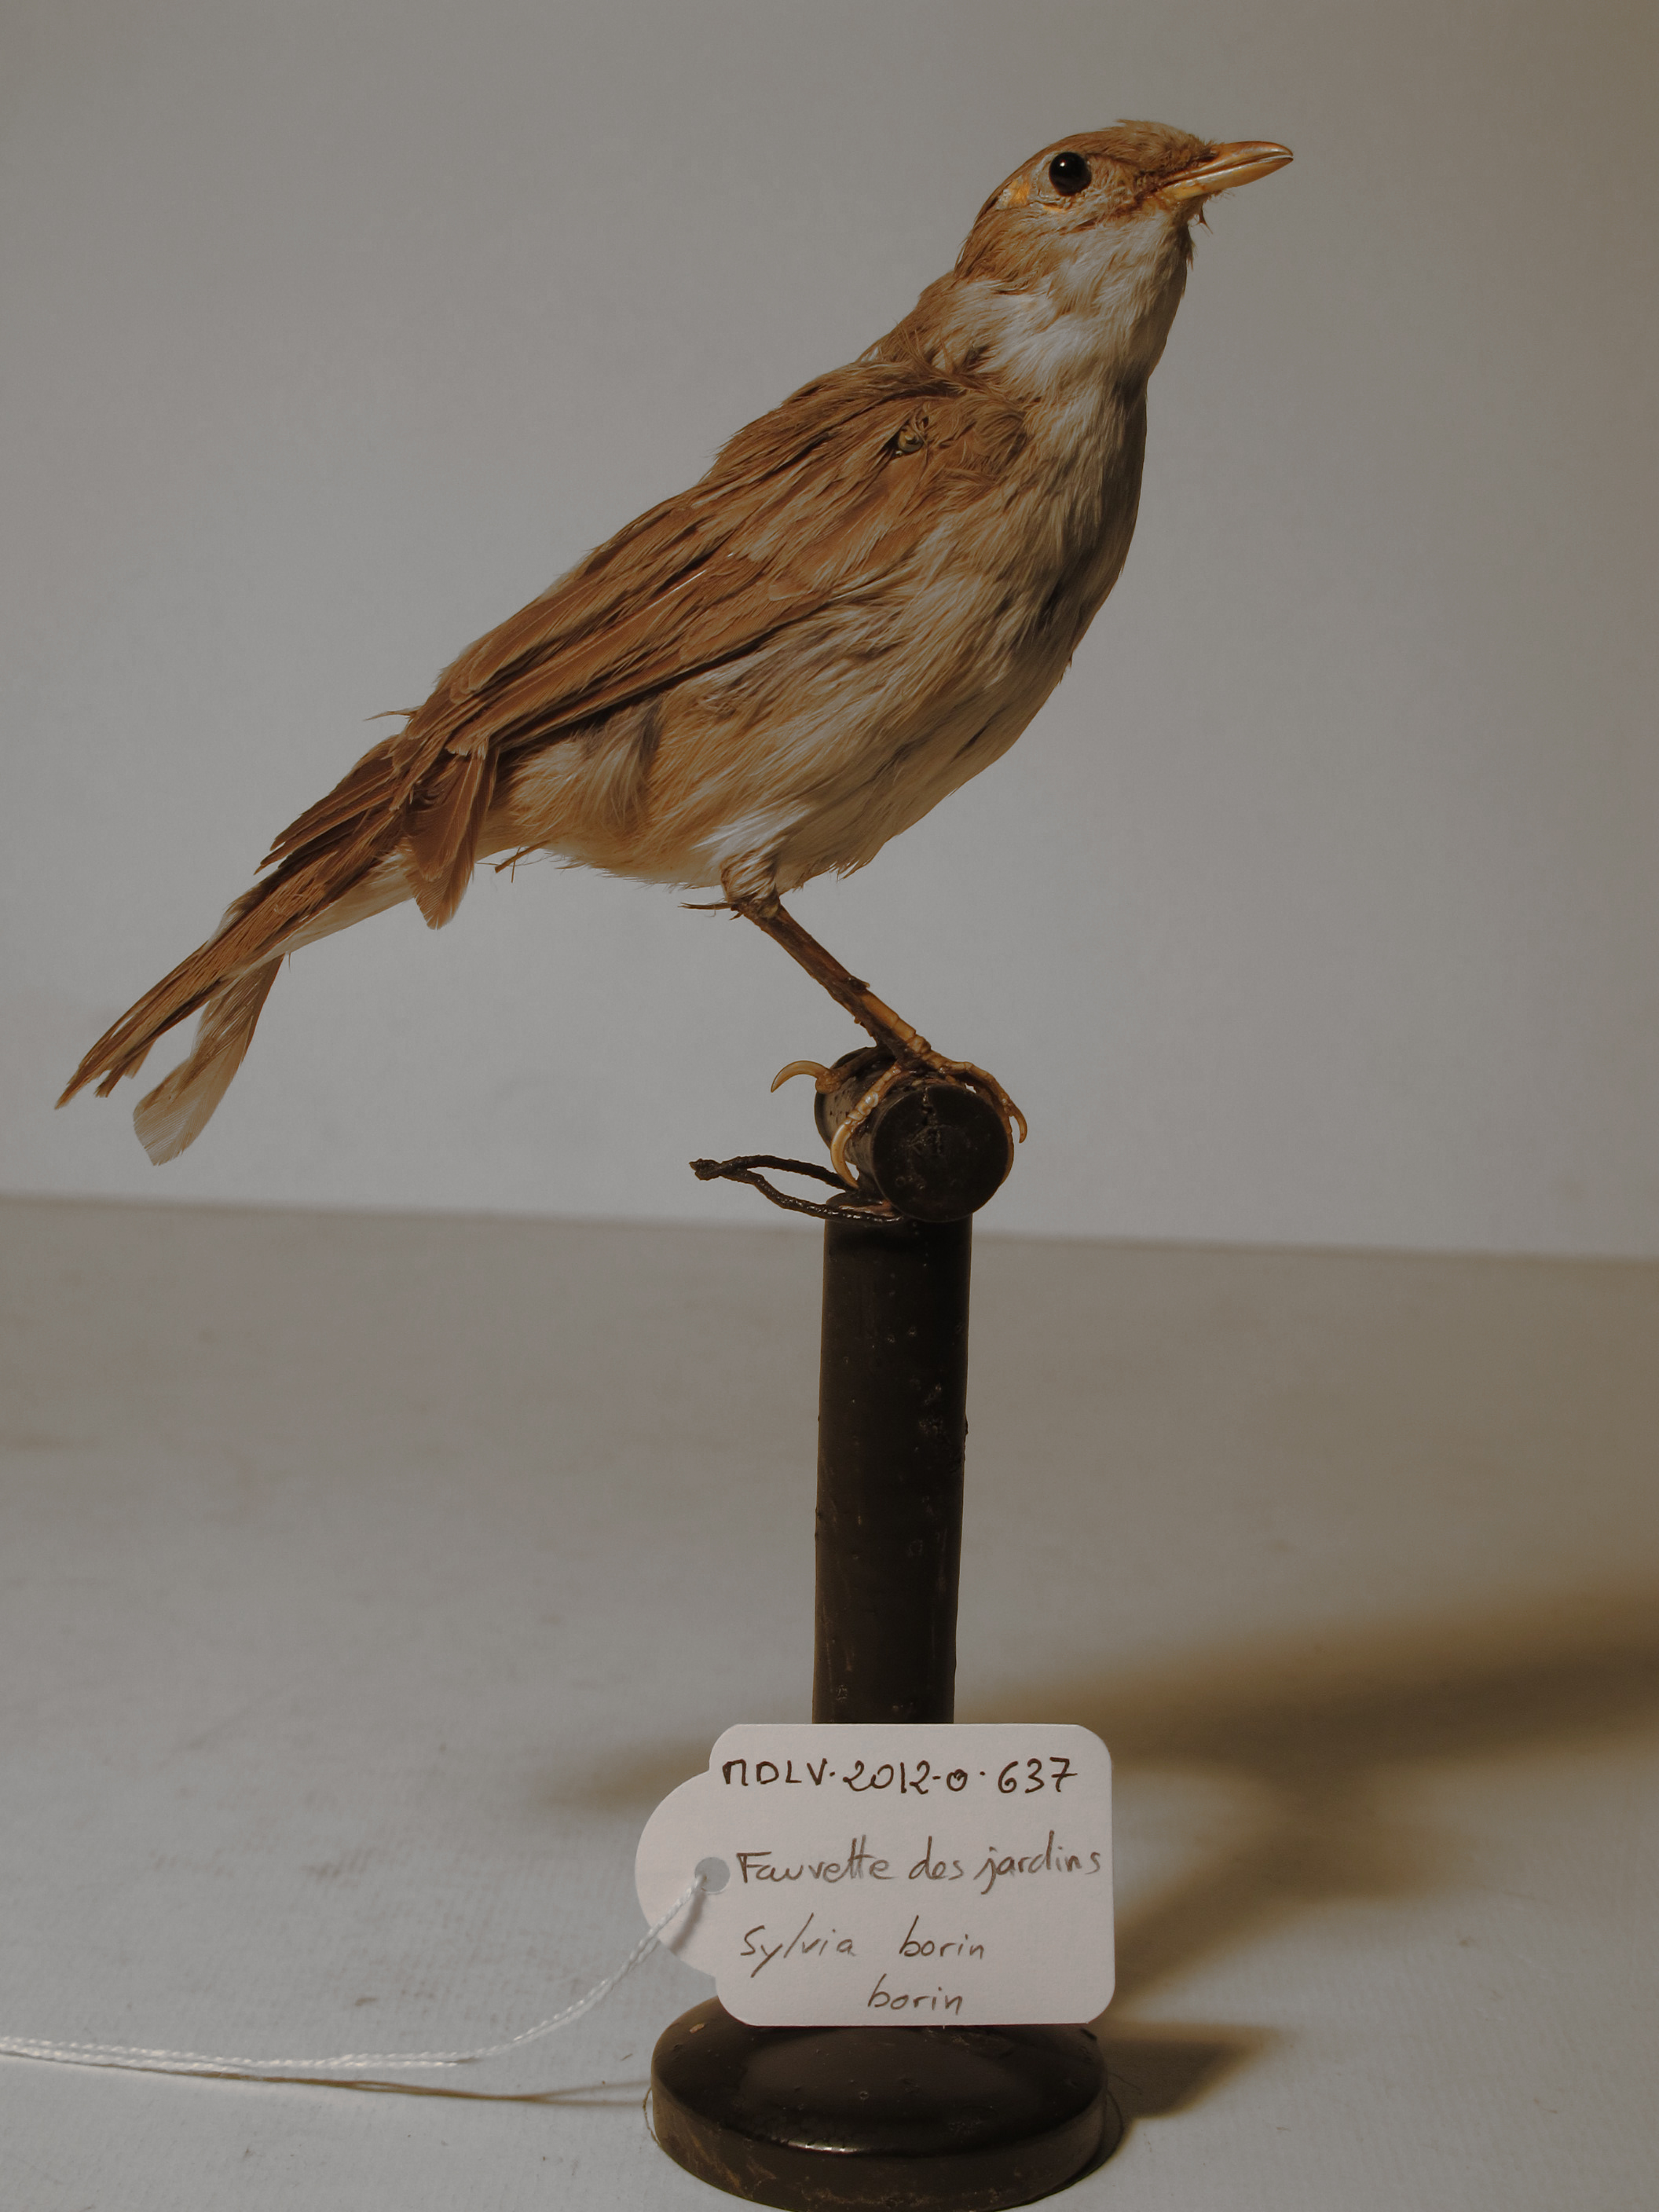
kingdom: Animalia
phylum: Chordata
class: Aves
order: Passeriformes
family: Sylviidae
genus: Sylvia
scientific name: Sylvia borin
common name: Garden Warbler
